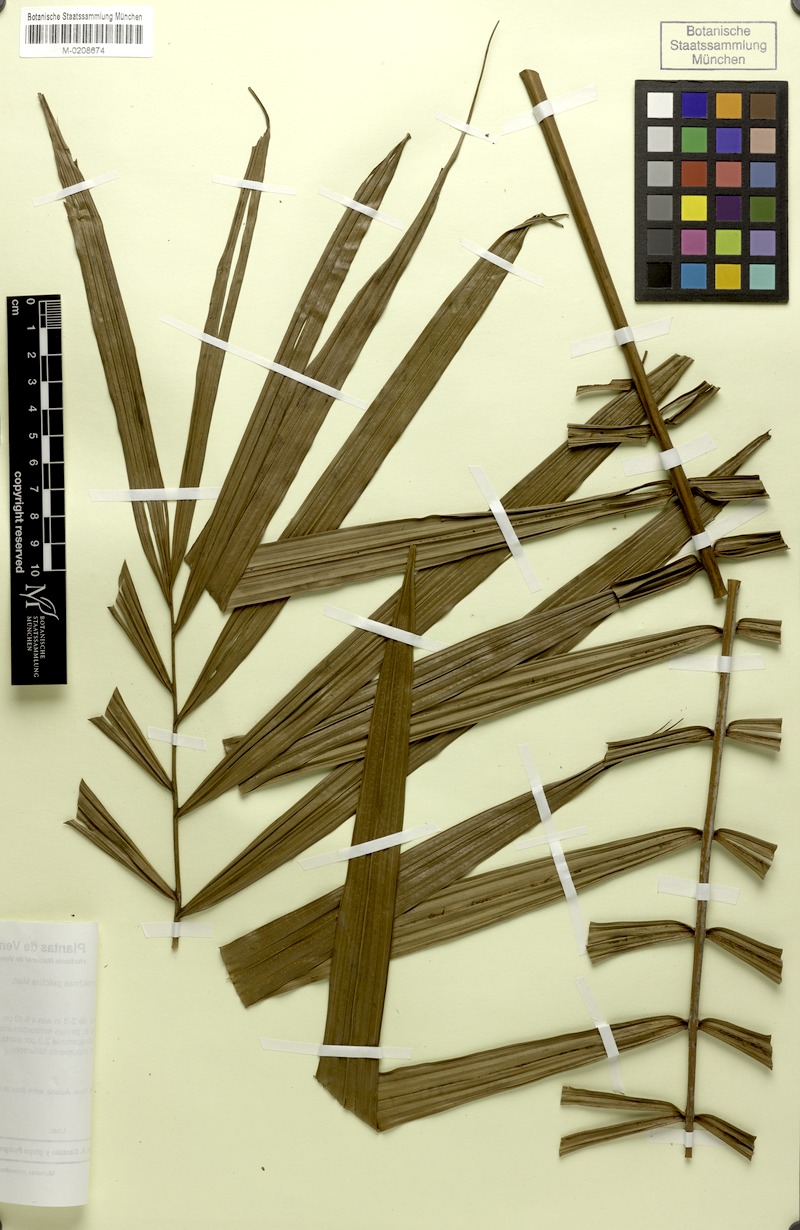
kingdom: Plantae
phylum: Tracheophyta
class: Liliopsida
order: Arecales
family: Arecaceae
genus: Leopoldinia
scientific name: Leopoldinia pulchra
